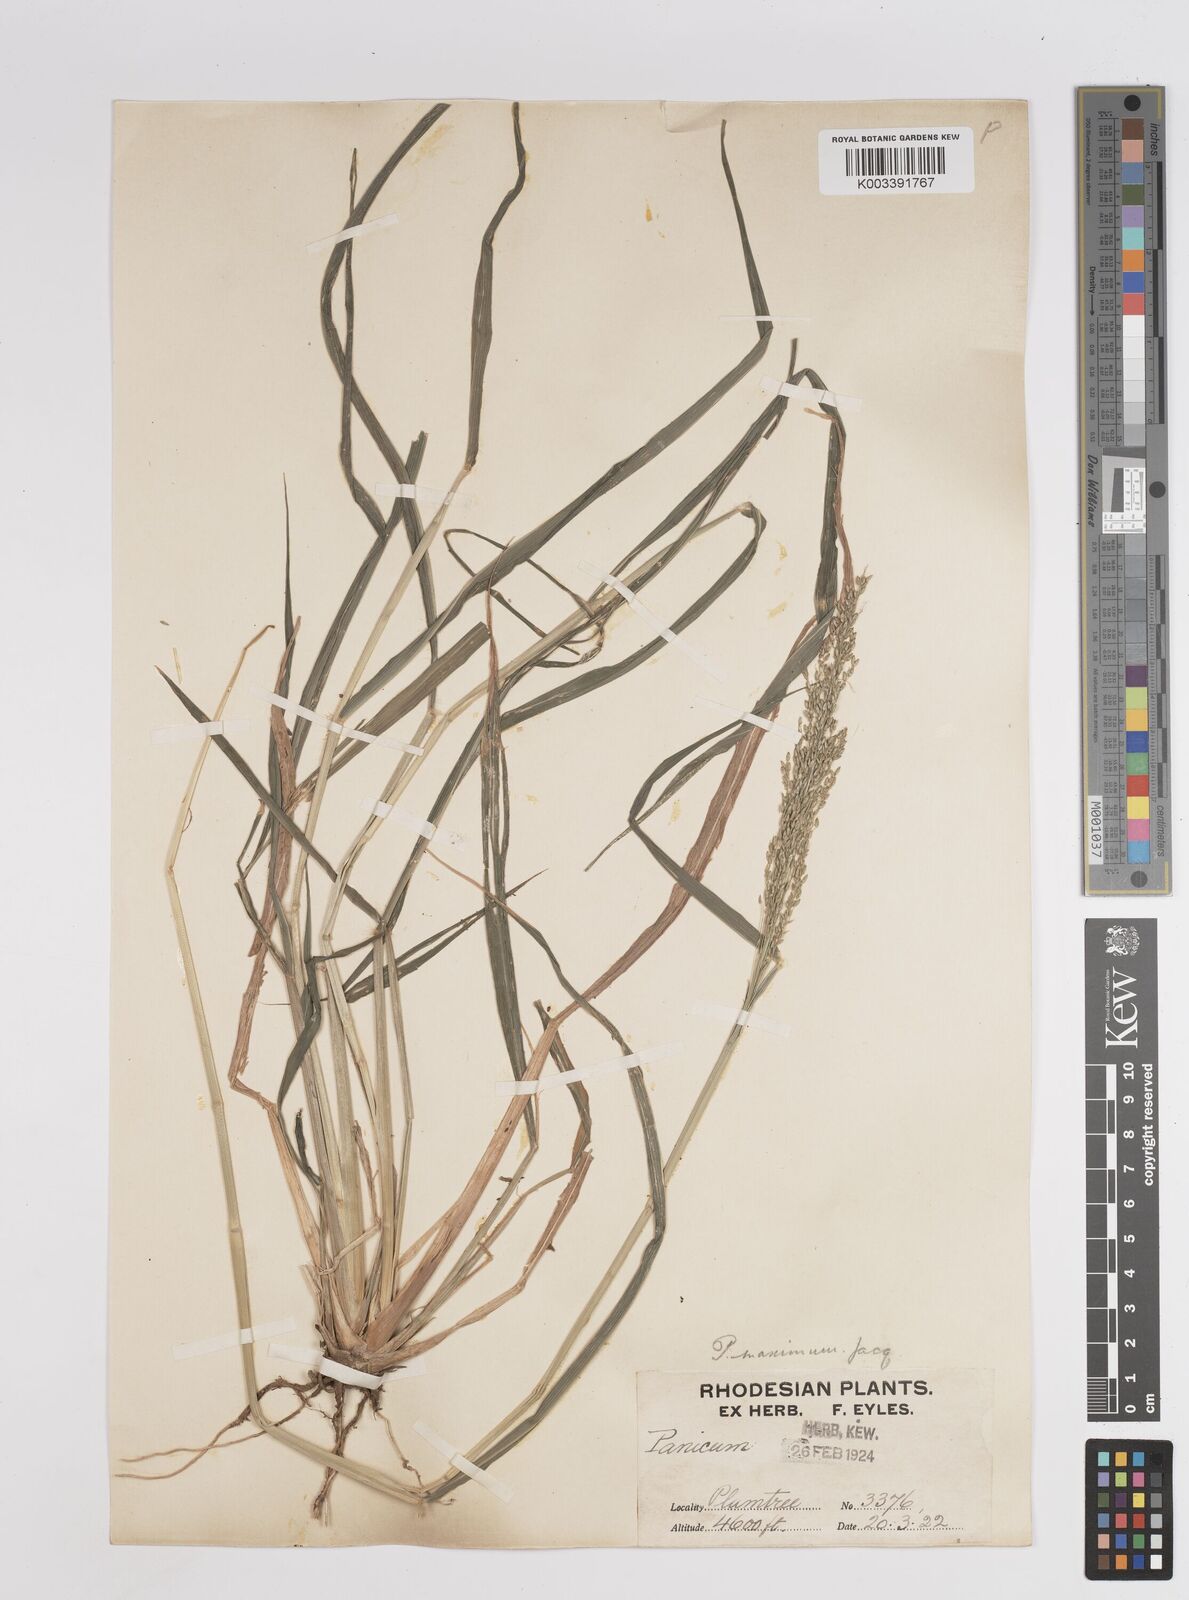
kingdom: Plantae
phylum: Tracheophyta
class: Liliopsida
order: Poales
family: Poaceae
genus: Megathyrsus
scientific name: Megathyrsus maximus
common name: Guineagrass
